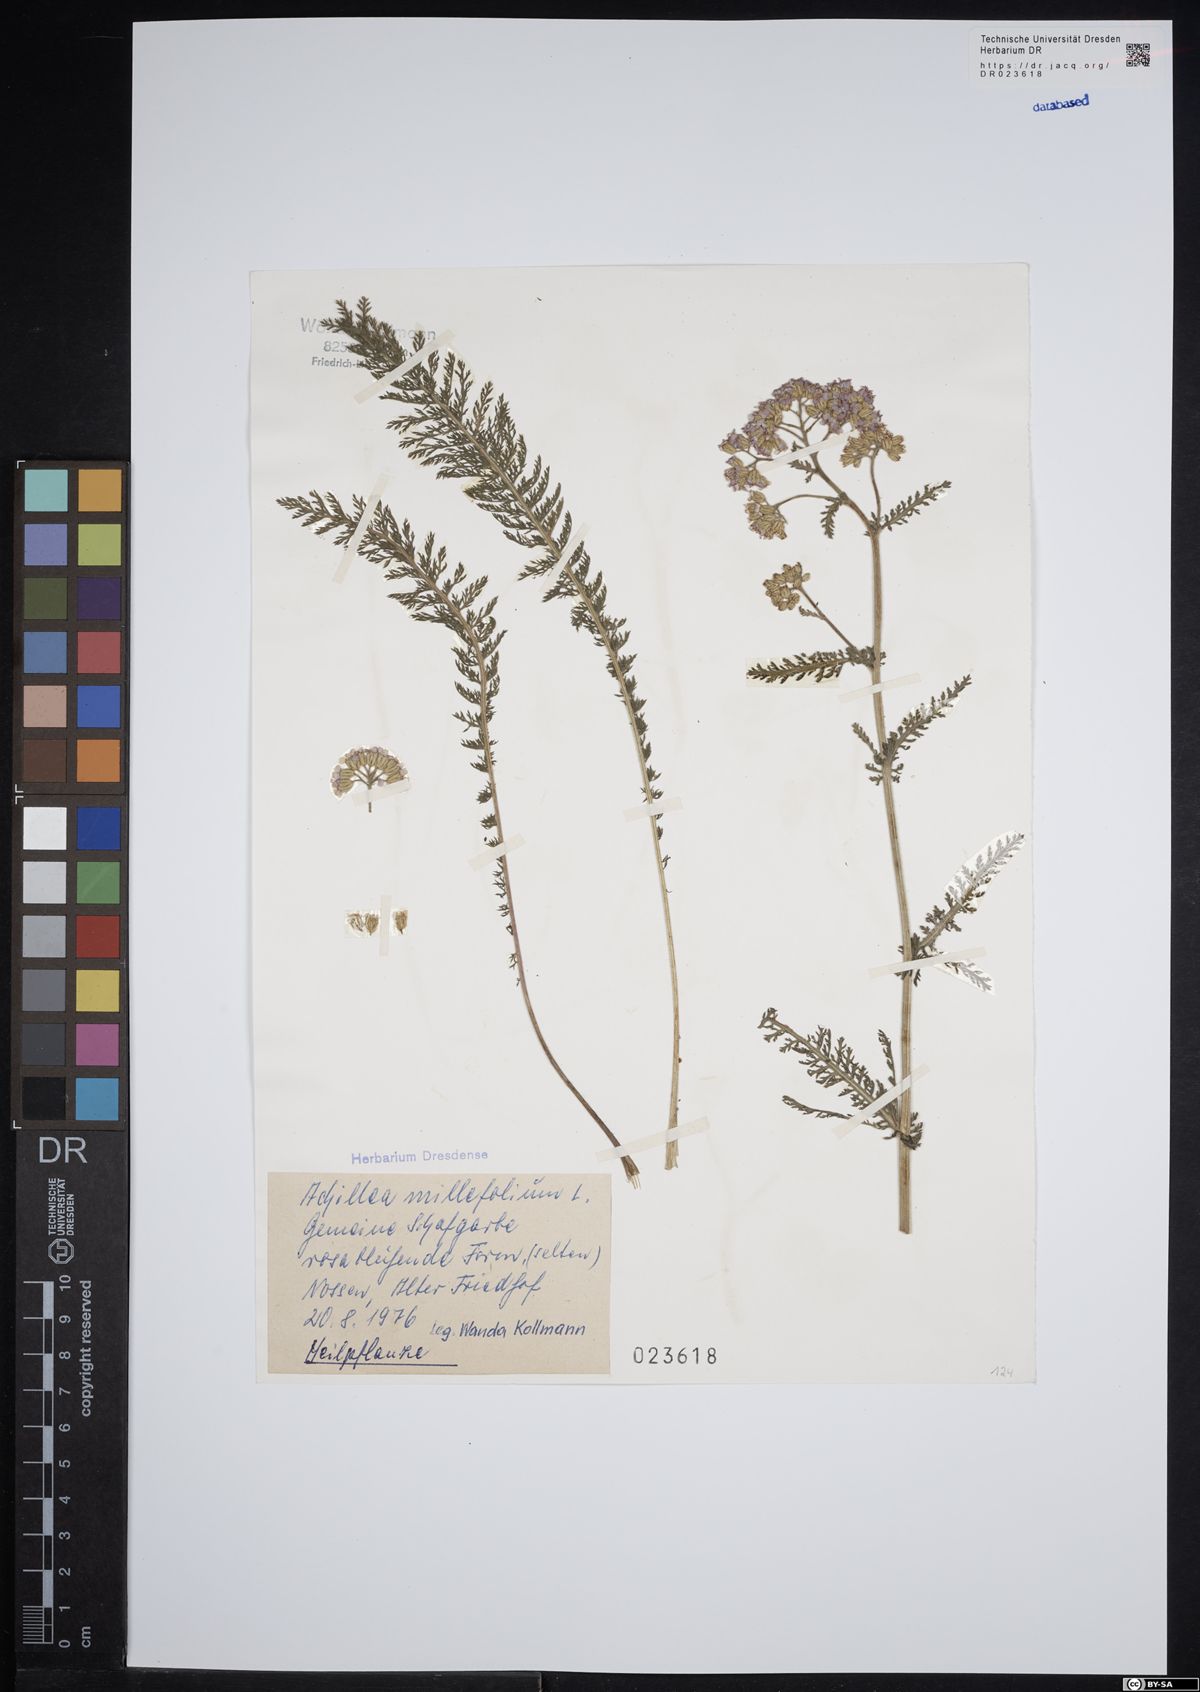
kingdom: Plantae
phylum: Tracheophyta
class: Magnoliopsida
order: Asterales
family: Asteraceae
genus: Achillea
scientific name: Achillea millefolium
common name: Yarrow
